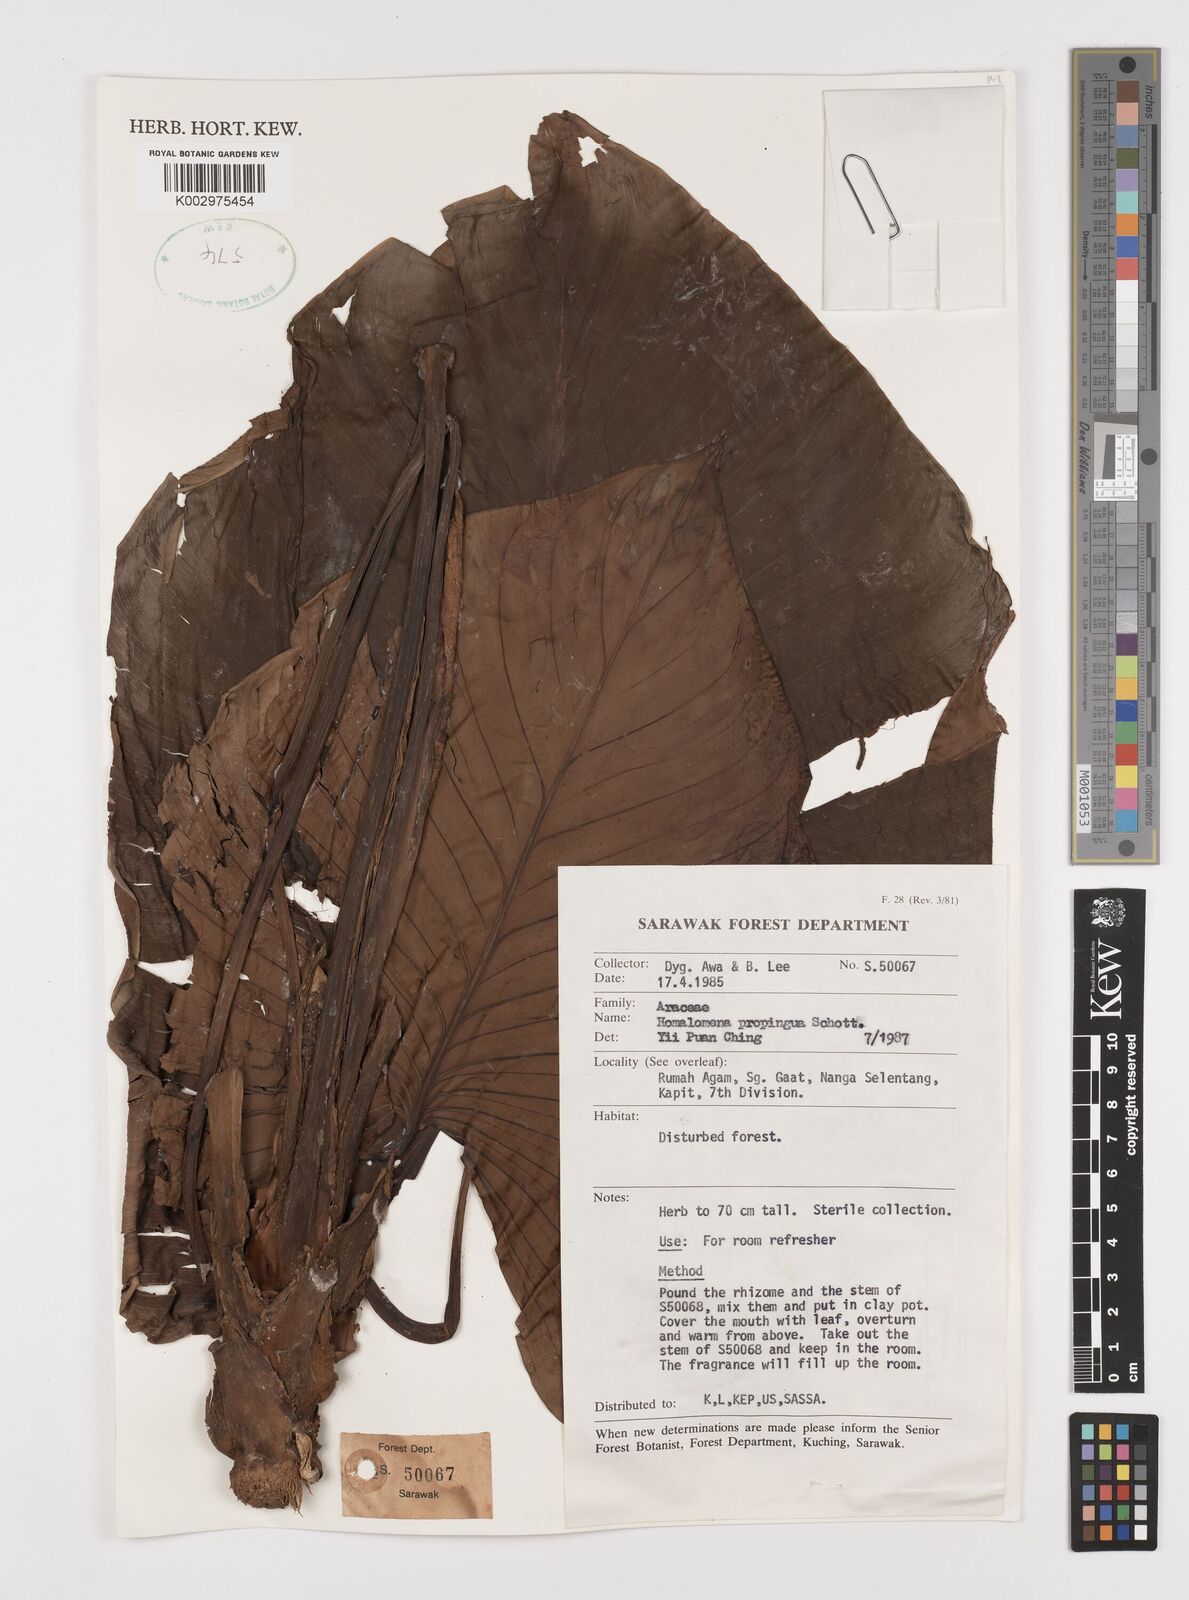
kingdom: Plantae
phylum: Tracheophyta
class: Liliopsida
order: Alismatales
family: Araceae
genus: Homalomena
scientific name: Homalomena humilis
